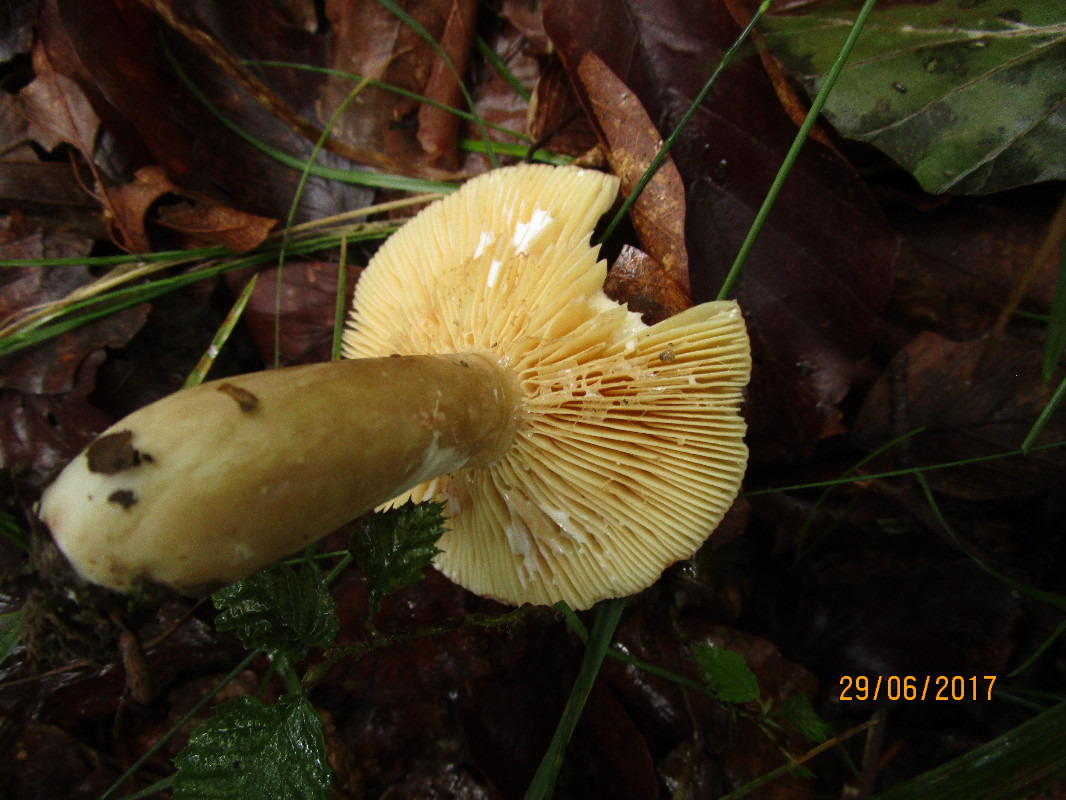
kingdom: Fungi
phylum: Basidiomycota
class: Agaricomycetes
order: Russulales
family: Russulaceae
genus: Lactarius
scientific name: Lactarius
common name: mælkehat
